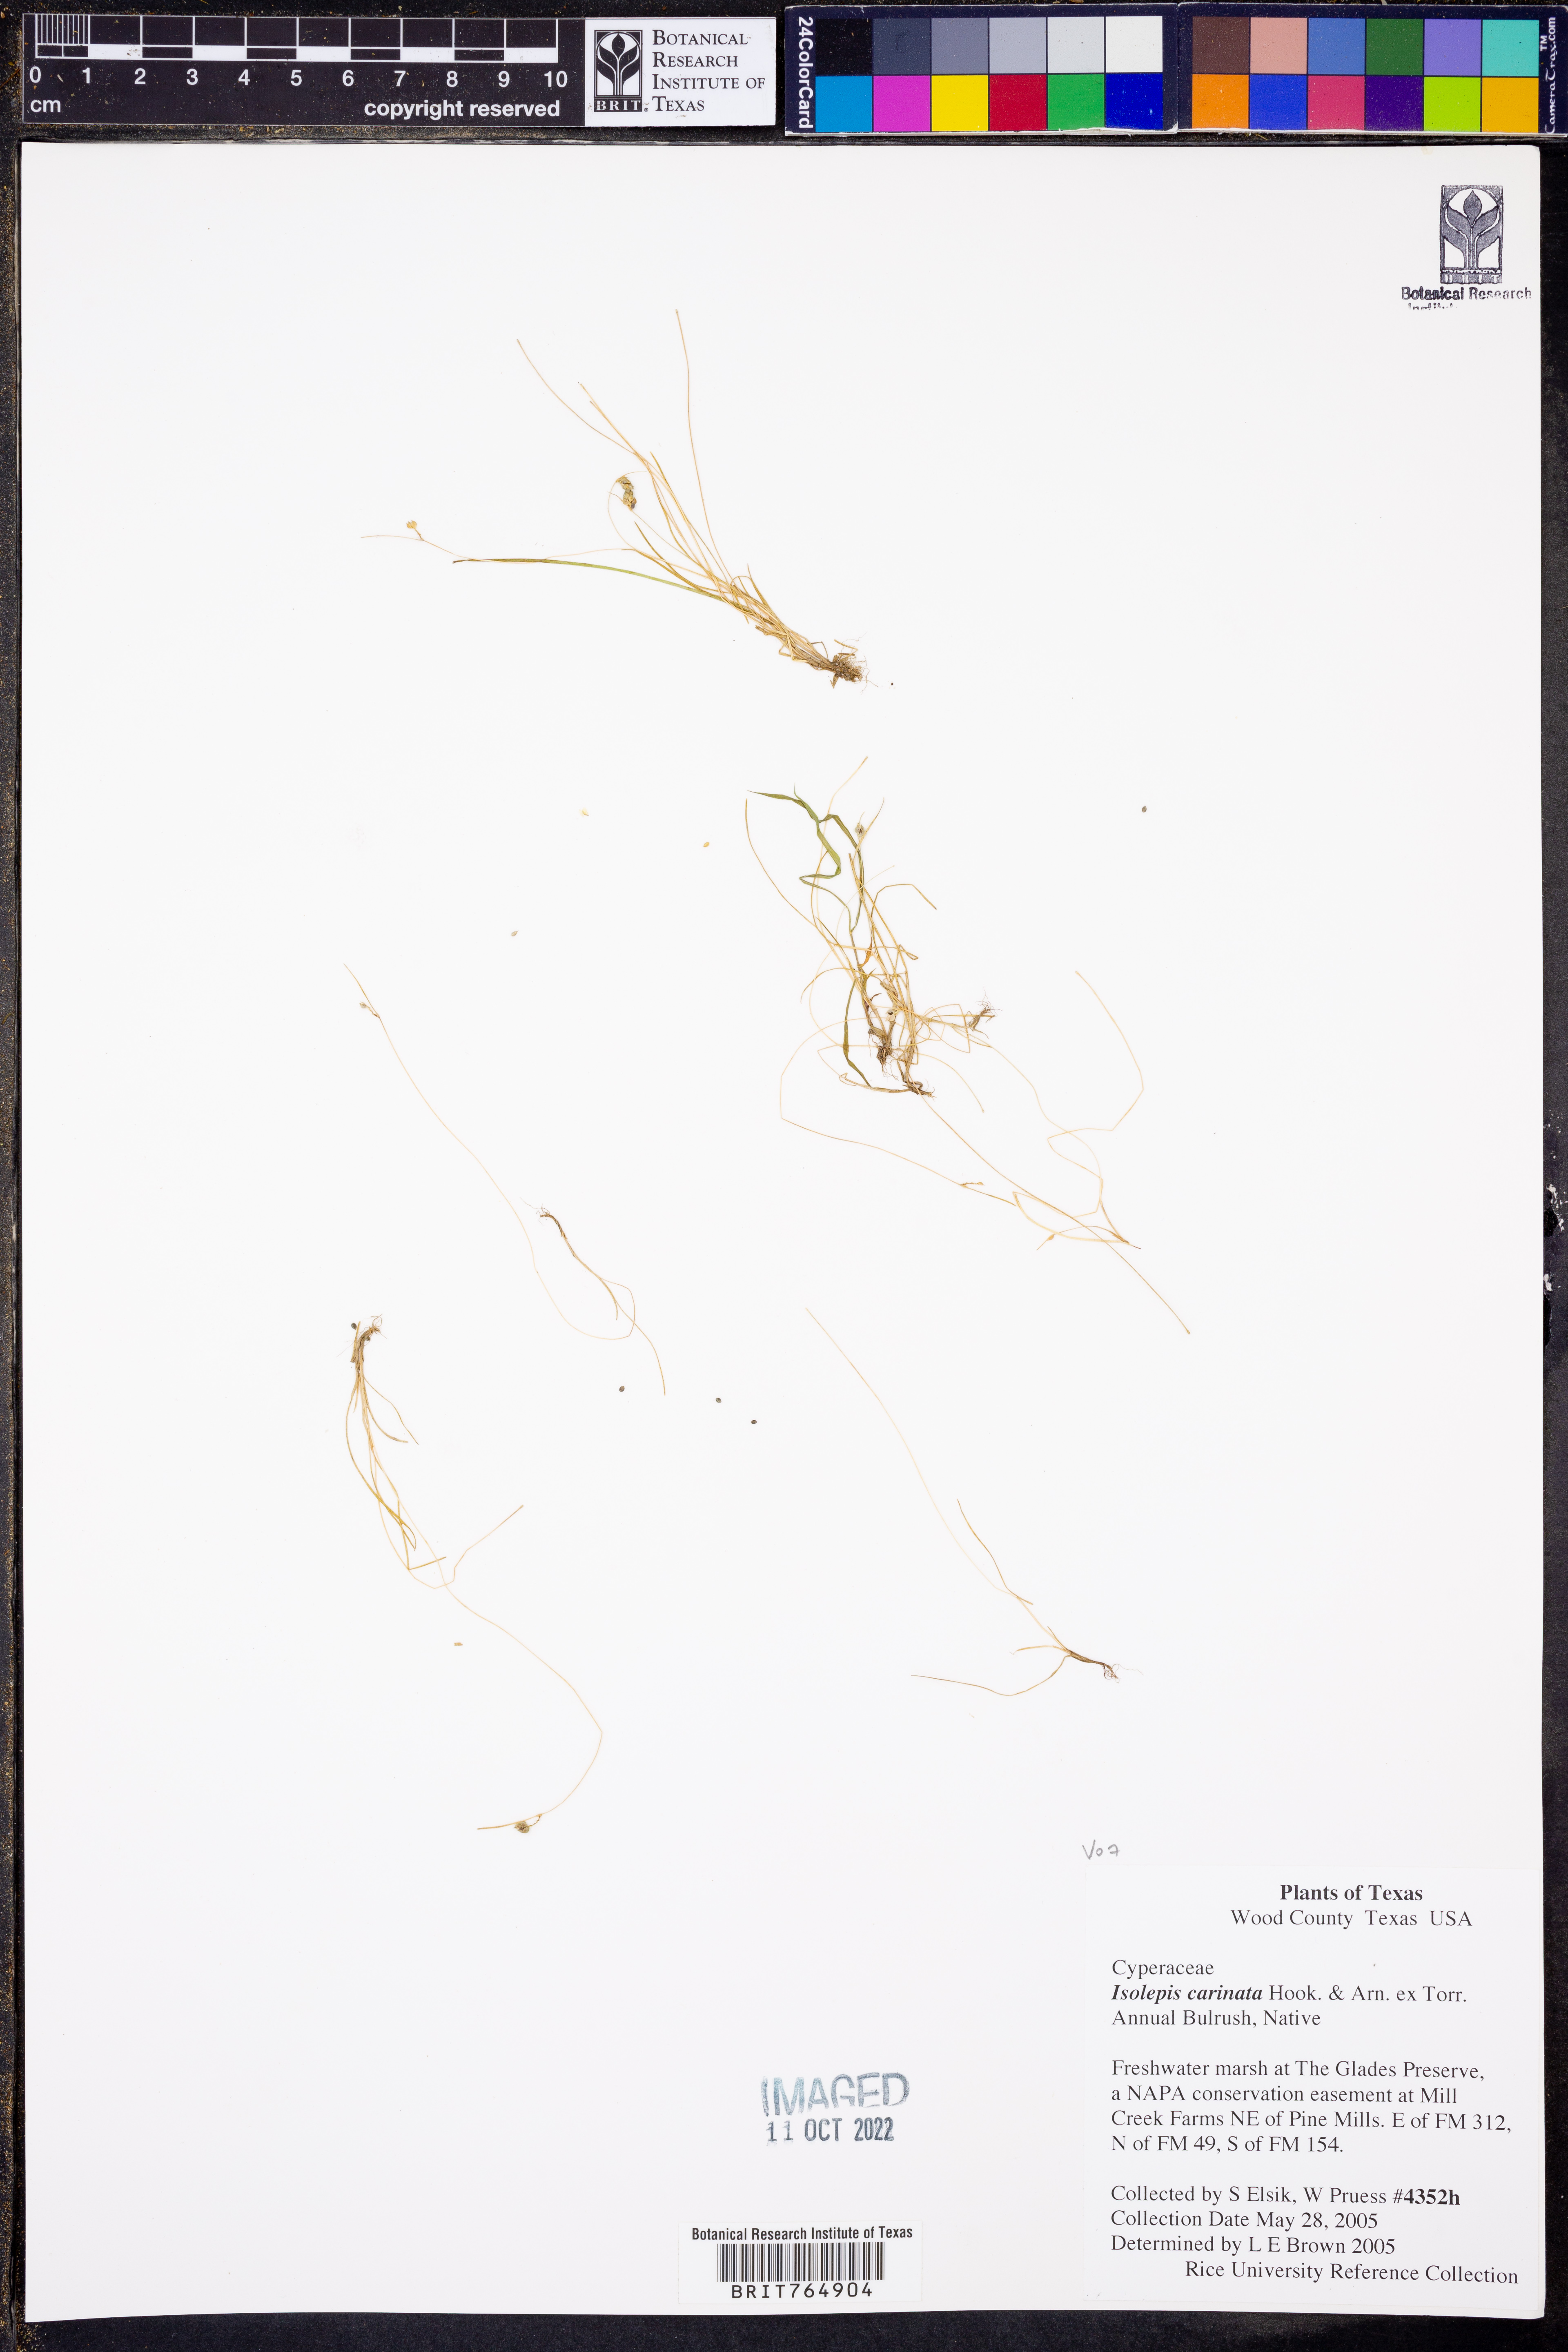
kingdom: Plantae
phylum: Tracheophyta
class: Liliopsida
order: Poales
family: Cyperaceae
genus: Isolepis
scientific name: Isolepis carinata
